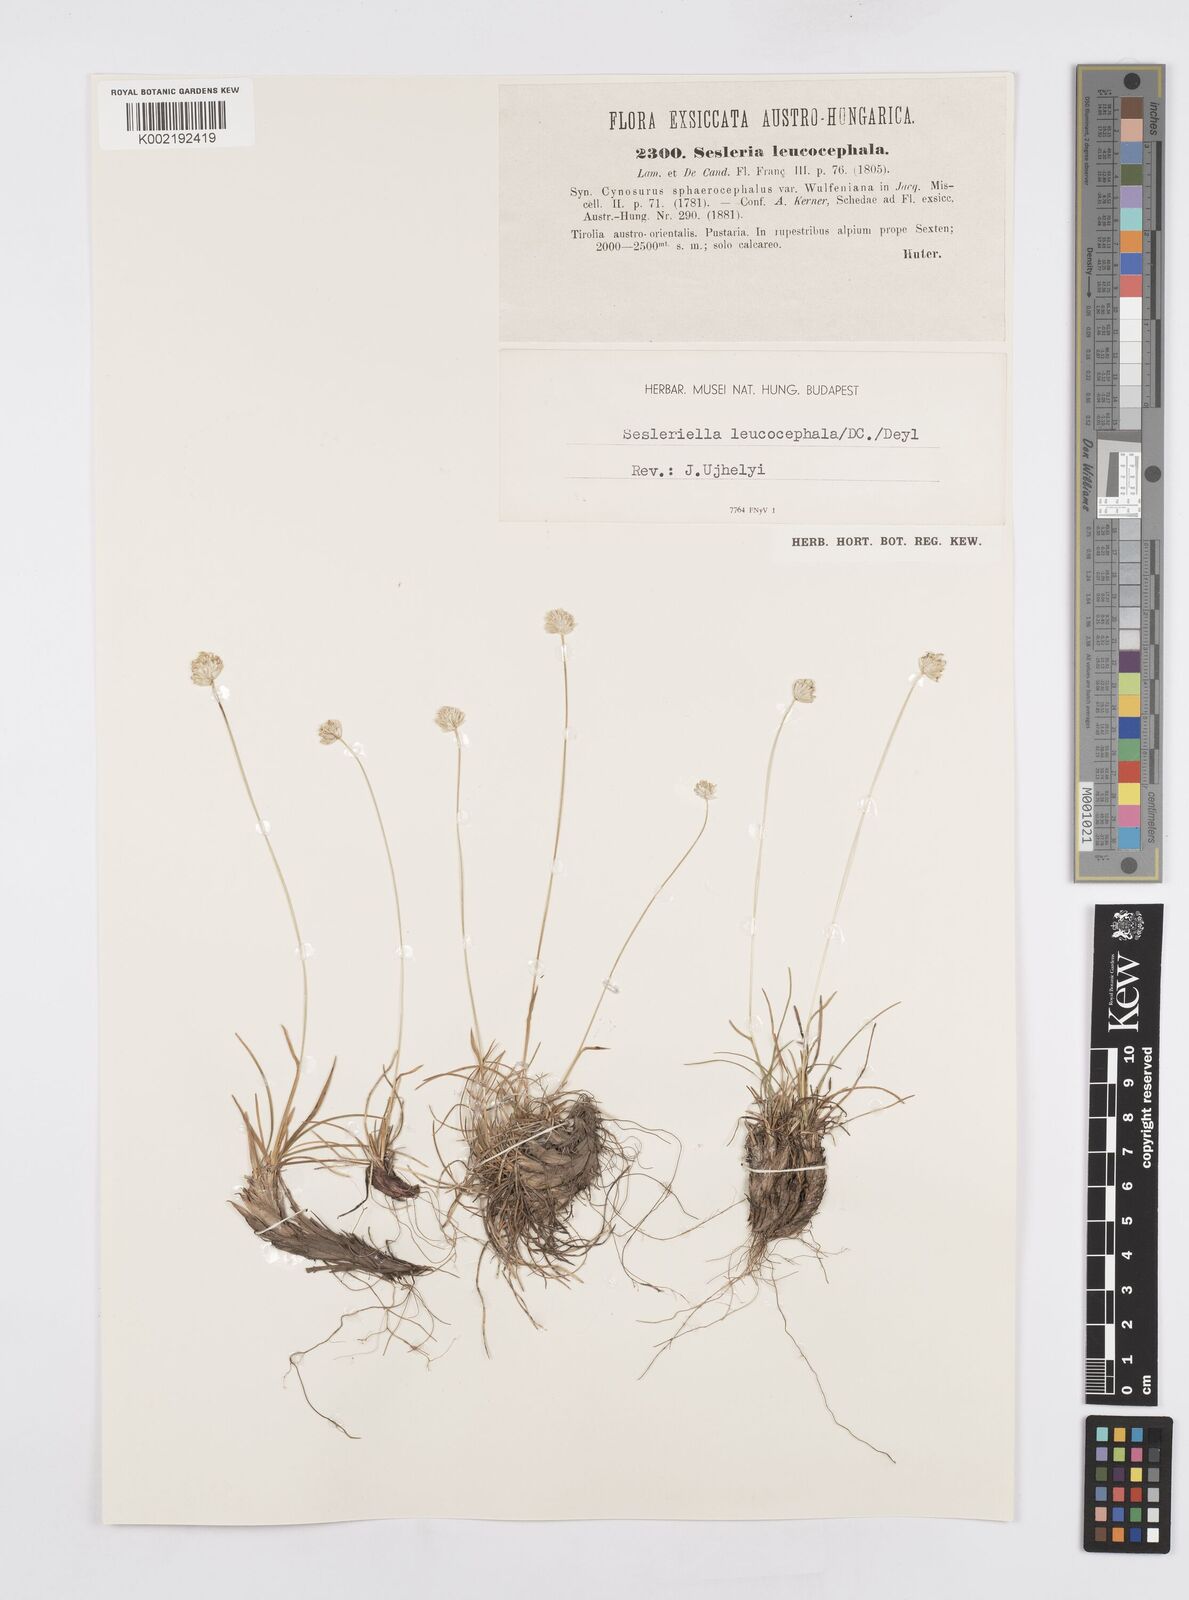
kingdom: Plantae
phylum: Tracheophyta
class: Liliopsida
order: Poales
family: Poaceae
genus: Sesleriella
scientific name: Sesleriella sphaerocephala
